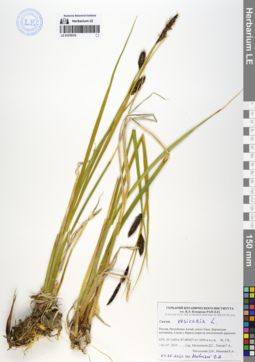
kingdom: Plantae
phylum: Tracheophyta
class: Liliopsida
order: Poales
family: Cyperaceae
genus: Carex
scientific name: Carex vesicaria
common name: Bladder-sedge
